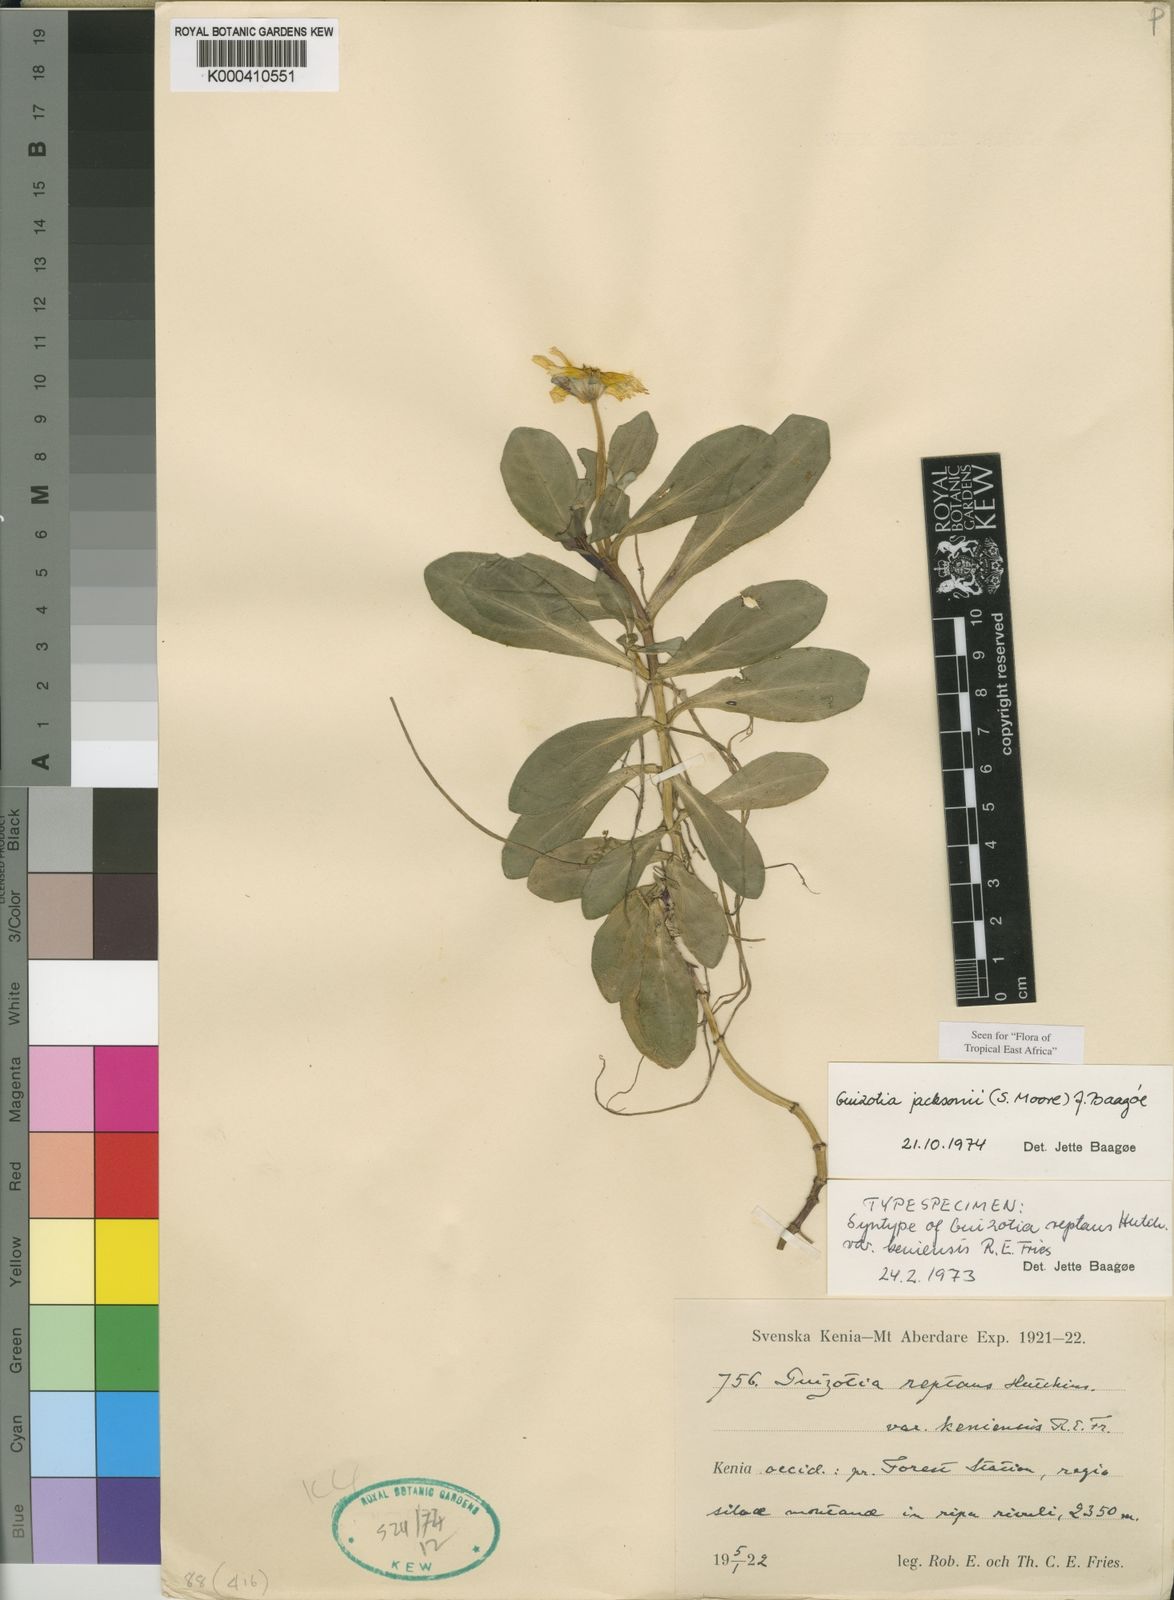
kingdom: Plantae
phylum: Tracheophyta
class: Magnoliopsida
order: Asterales
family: Asteraceae
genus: Guizotia
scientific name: Guizotia jacksonii
